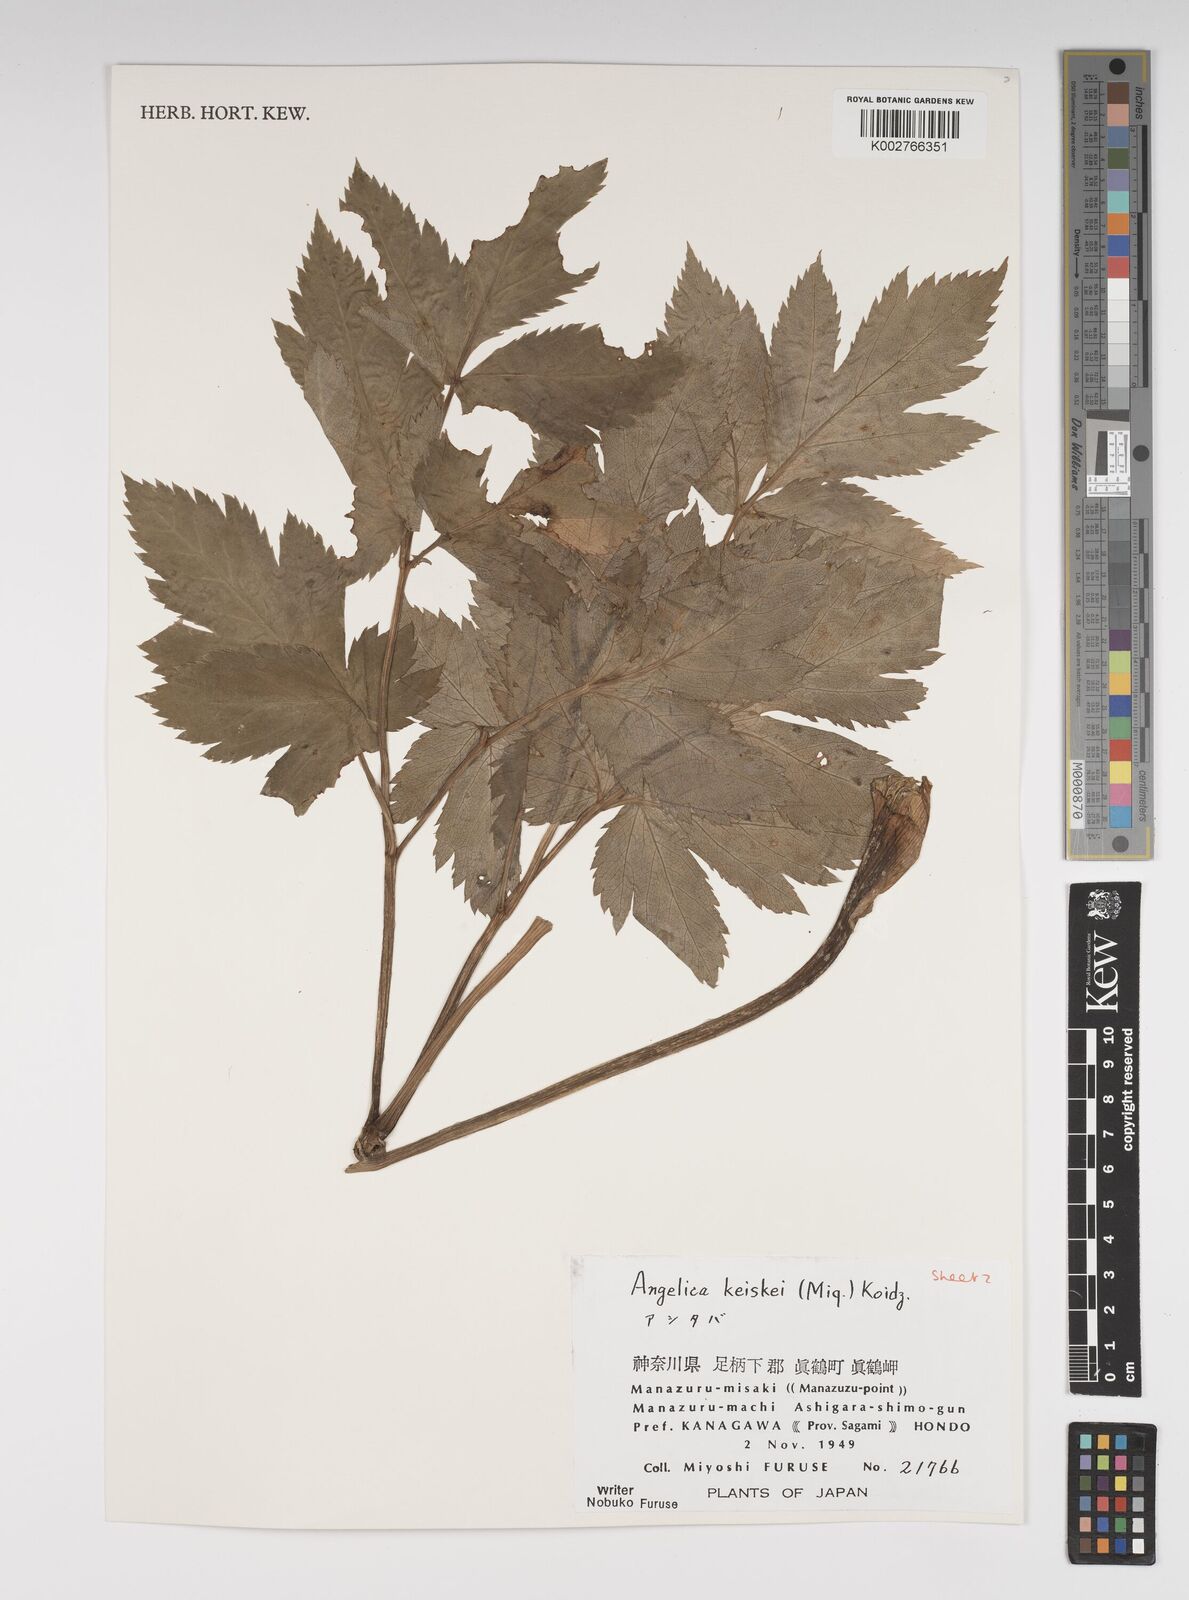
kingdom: Plantae
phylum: Tracheophyta
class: Magnoliopsida
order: Apiales
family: Apiaceae
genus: Angelica
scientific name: Angelica keiskei
